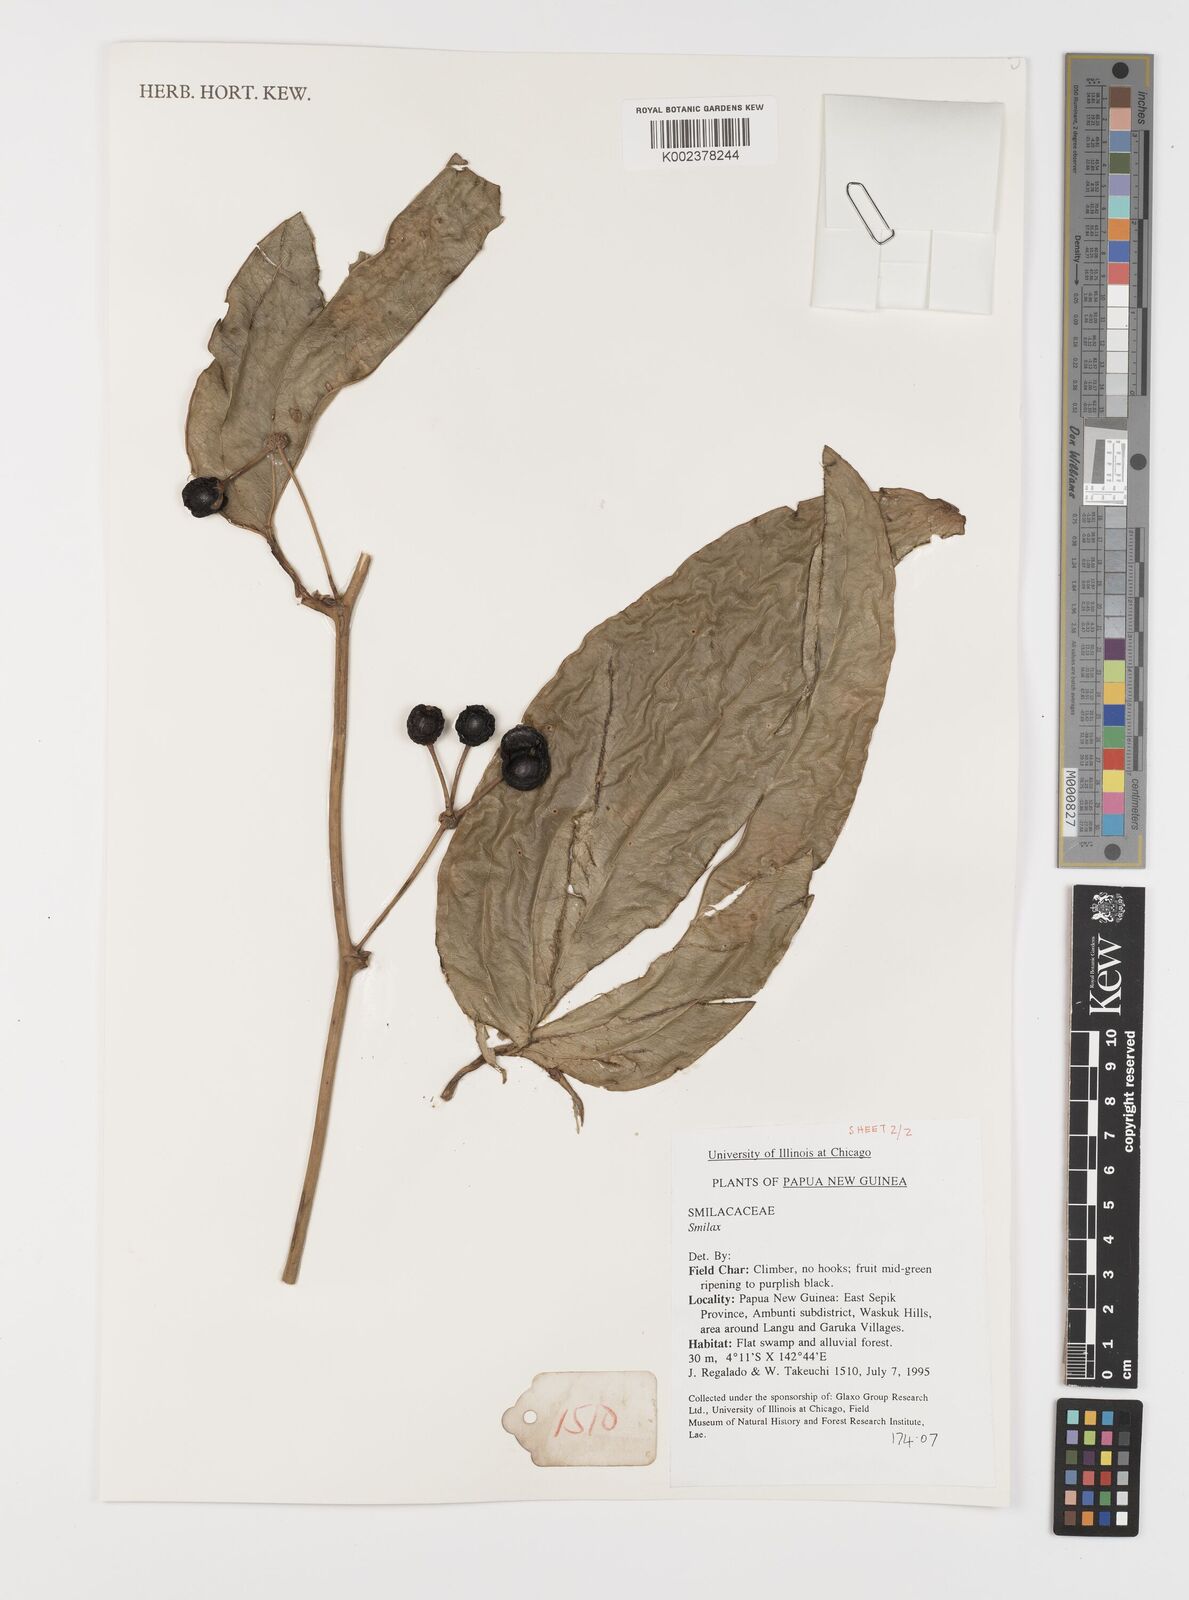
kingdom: Plantae
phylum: Tracheophyta
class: Liliopsida
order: Liliales
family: Smilacaceae
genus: Smilax
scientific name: Smilax
